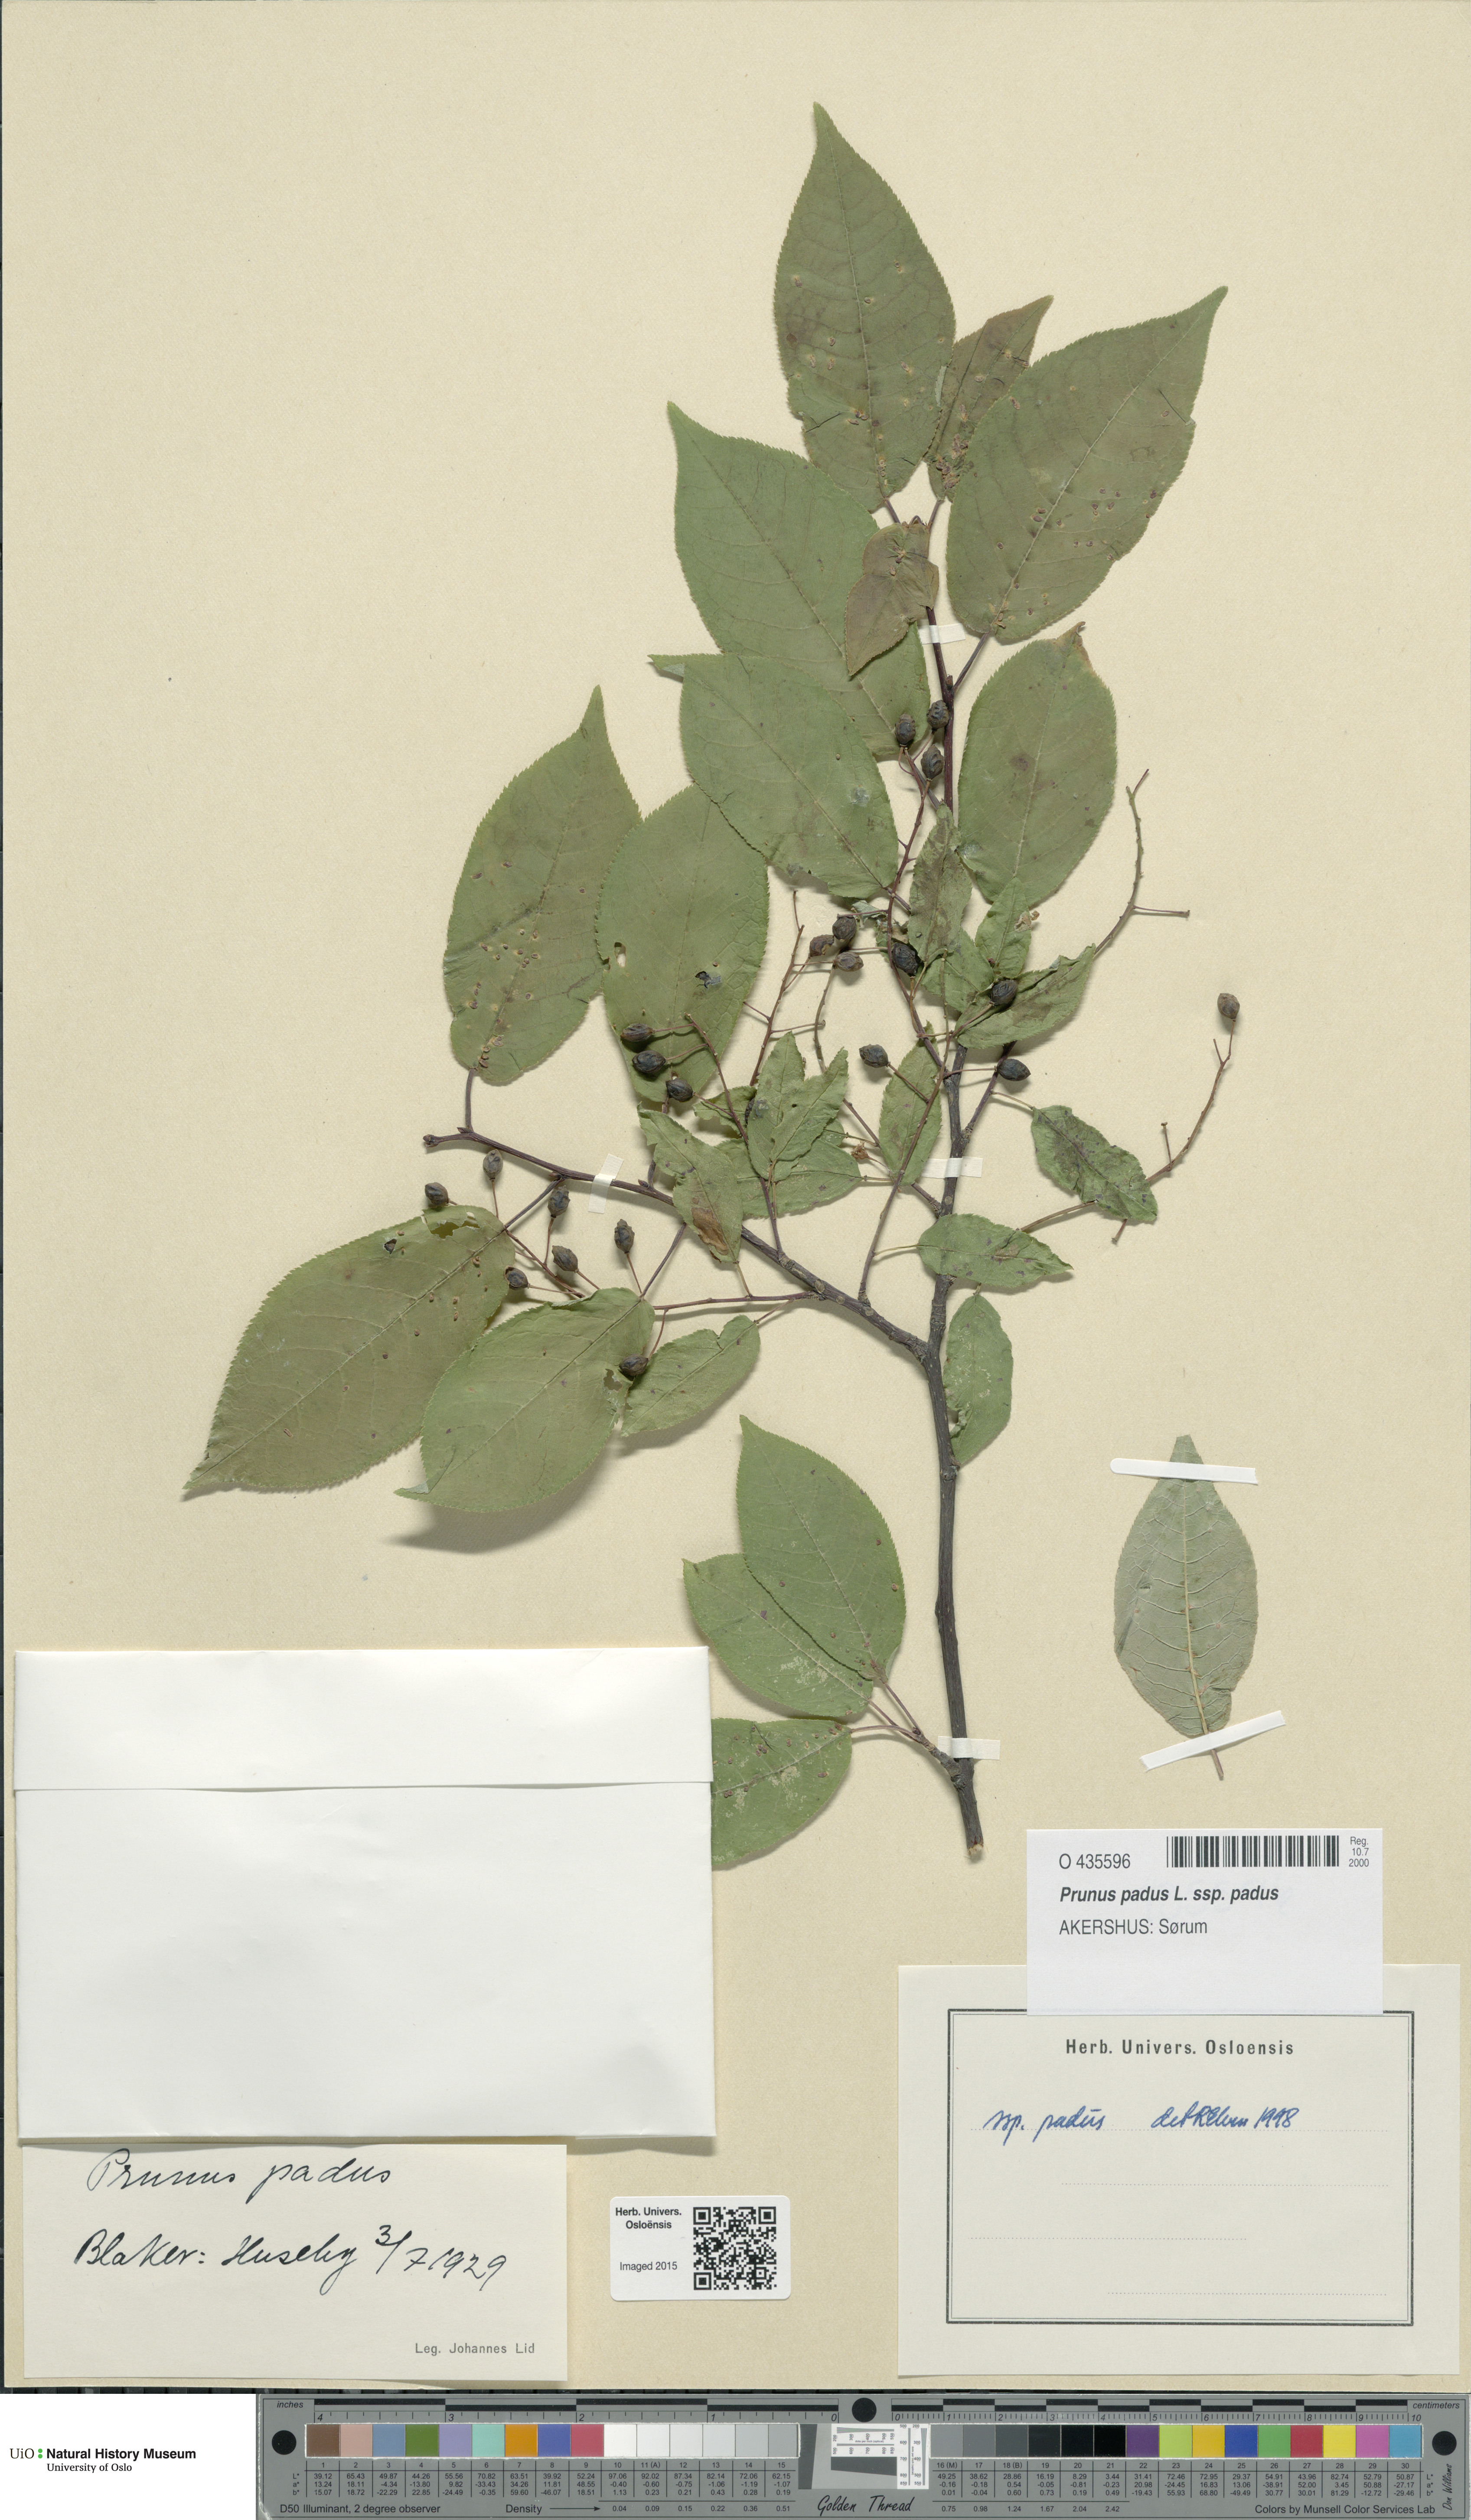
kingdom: Plantae
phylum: Tracheophyta
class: Magnoliopsida
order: Rosales
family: Rosaceae
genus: Prunus
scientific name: Prunus padus
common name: Bird cherry
